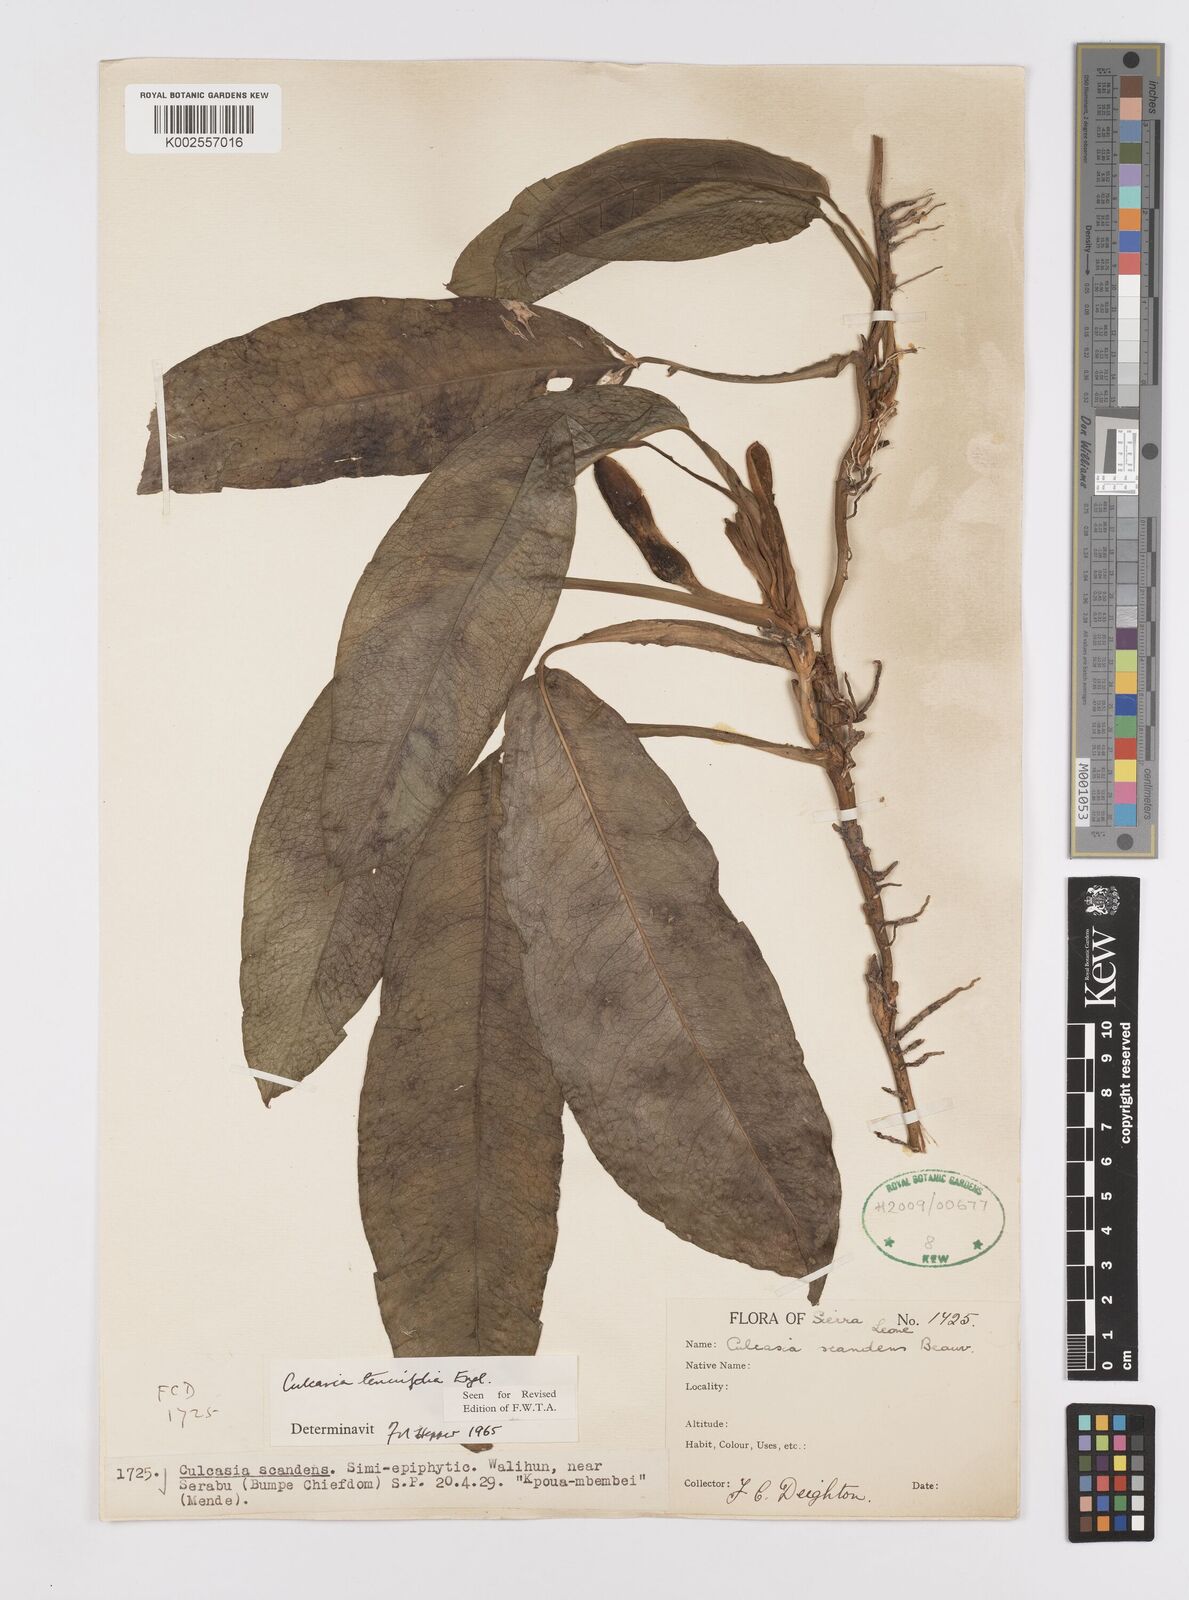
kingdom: Plantae
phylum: Tracheophyta
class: Liliopsida
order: Alismatales
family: Araceae
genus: Culcasia
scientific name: Culcasia tenuifolia
